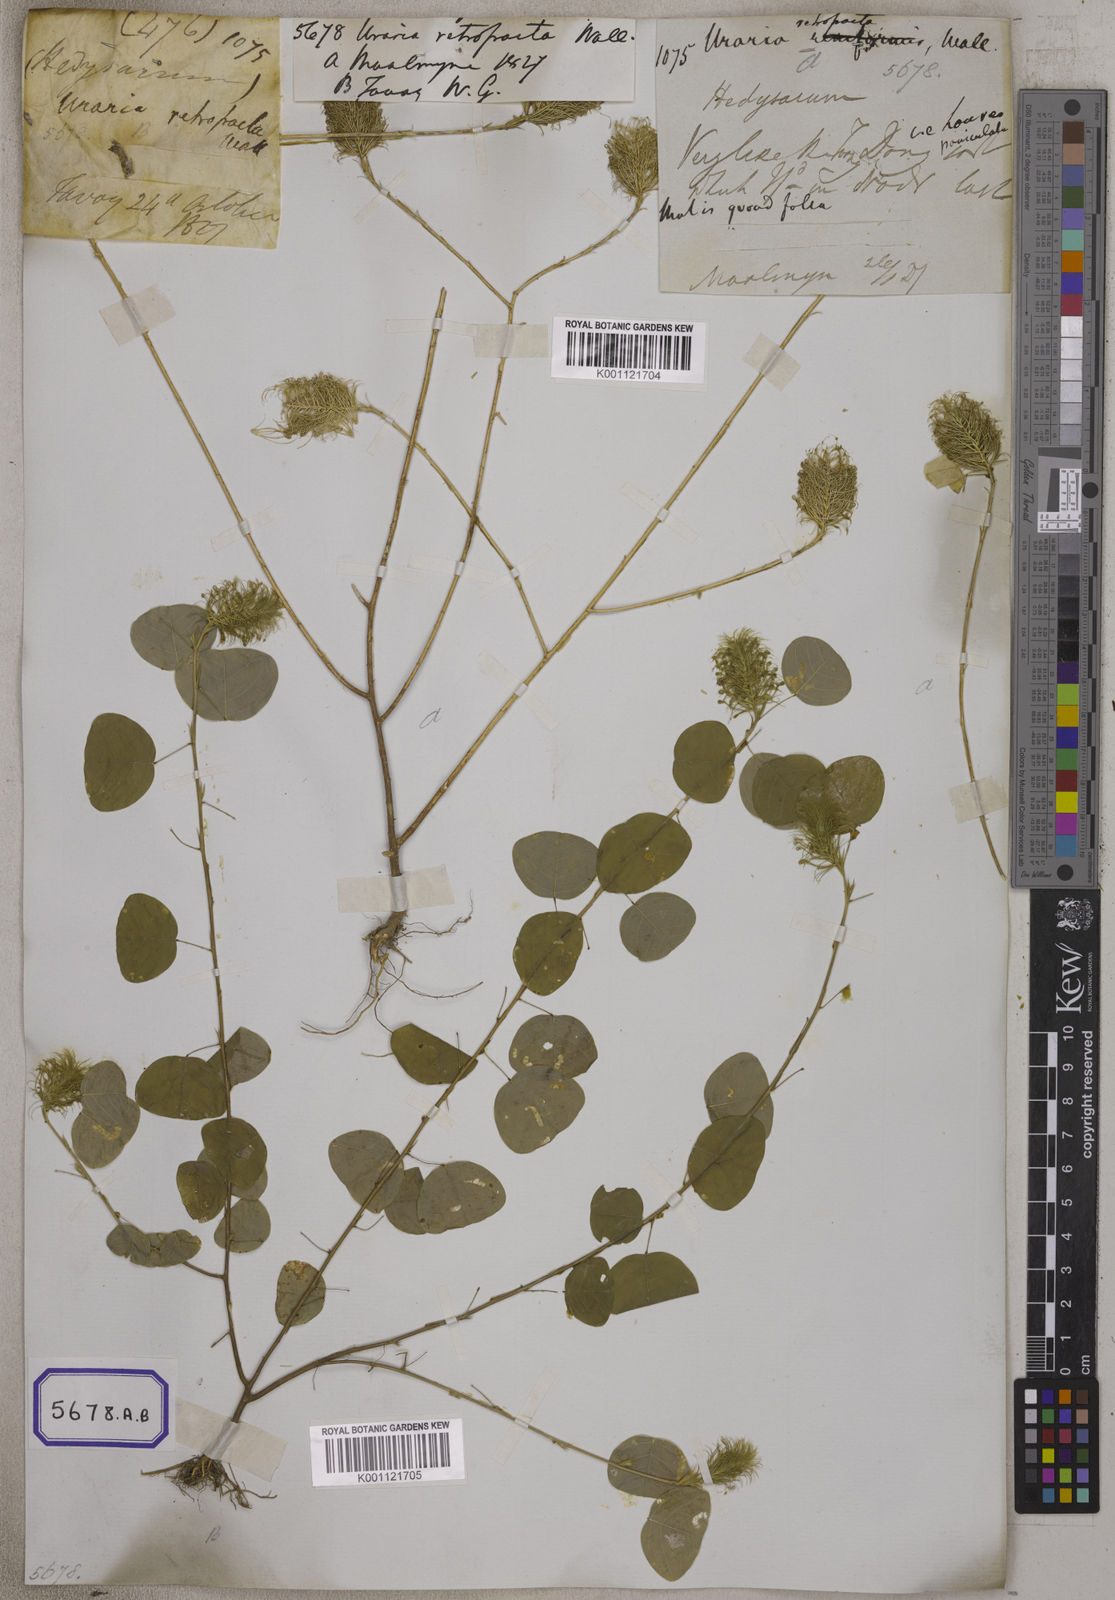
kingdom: Plantae
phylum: Tracheophyta
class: Magnoliopsida
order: Fabales
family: Fabaceae
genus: Mecopus
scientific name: Mecopus nidulans
